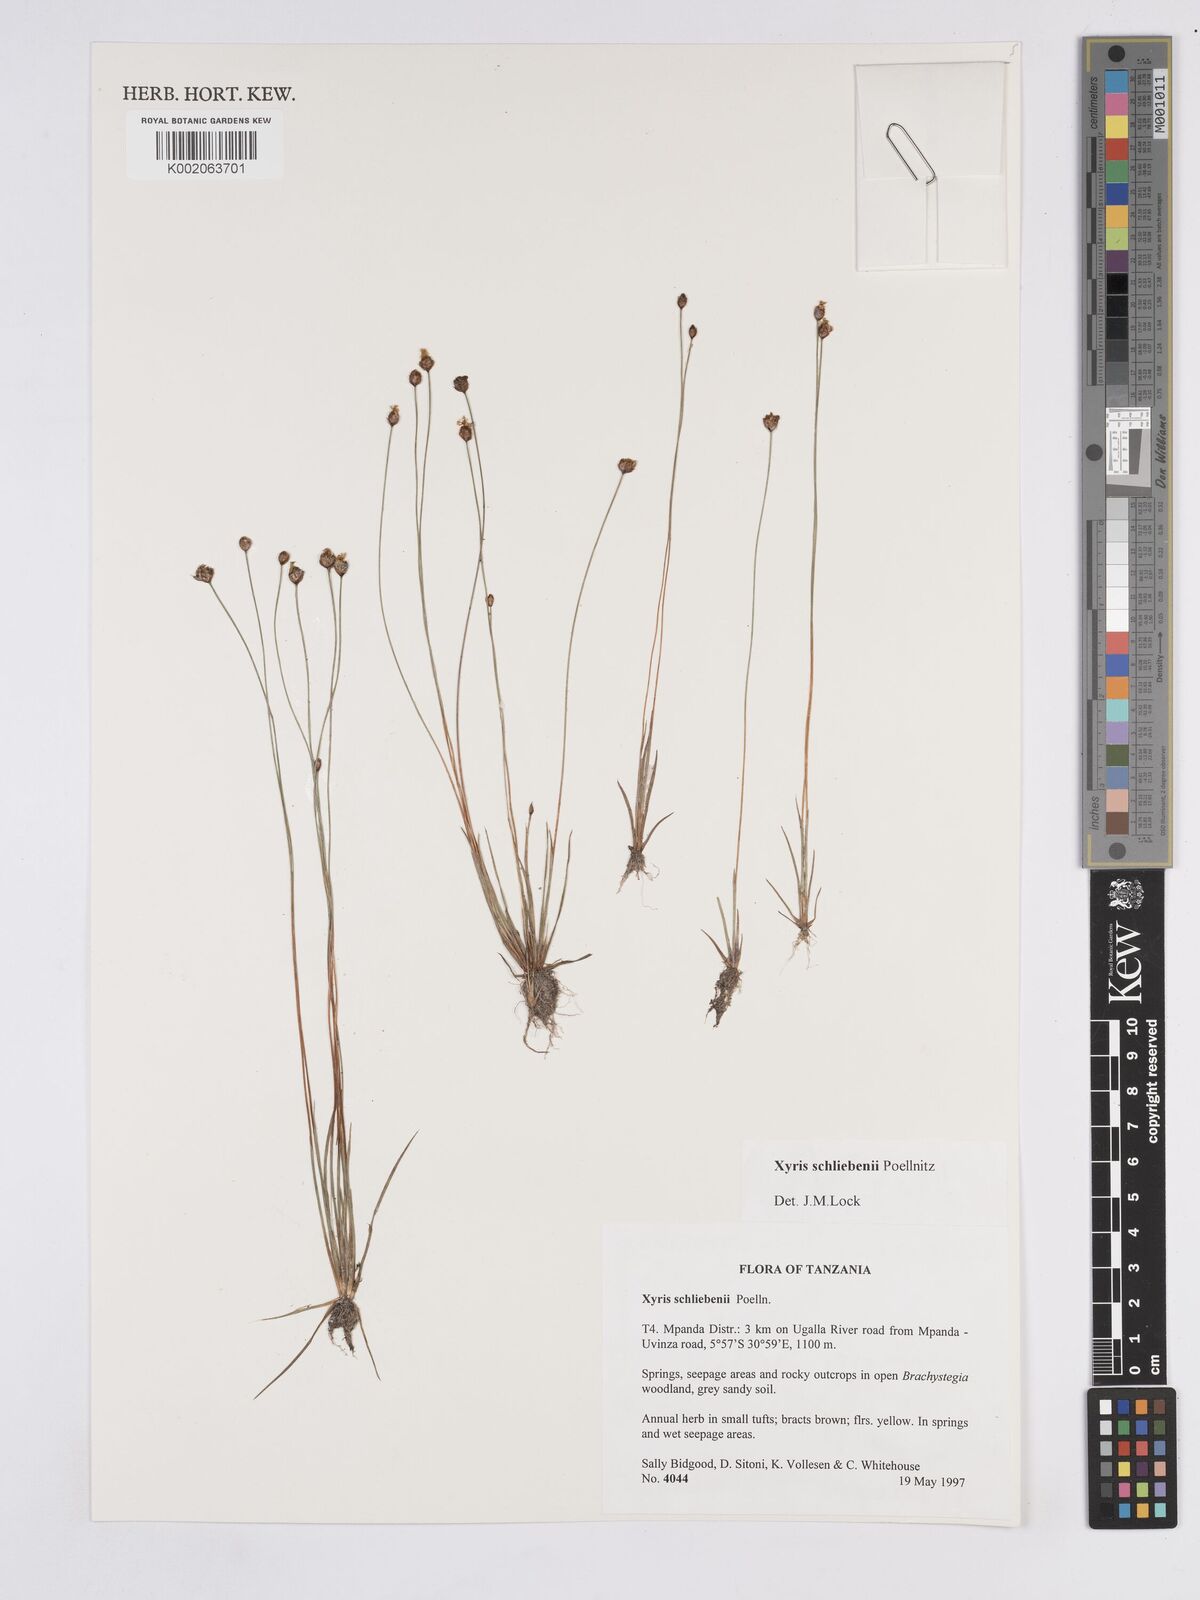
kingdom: Plantae
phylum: Tracheophyta
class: Liliopsida
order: Poales
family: Xyridaceae
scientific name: Xyridaceae
